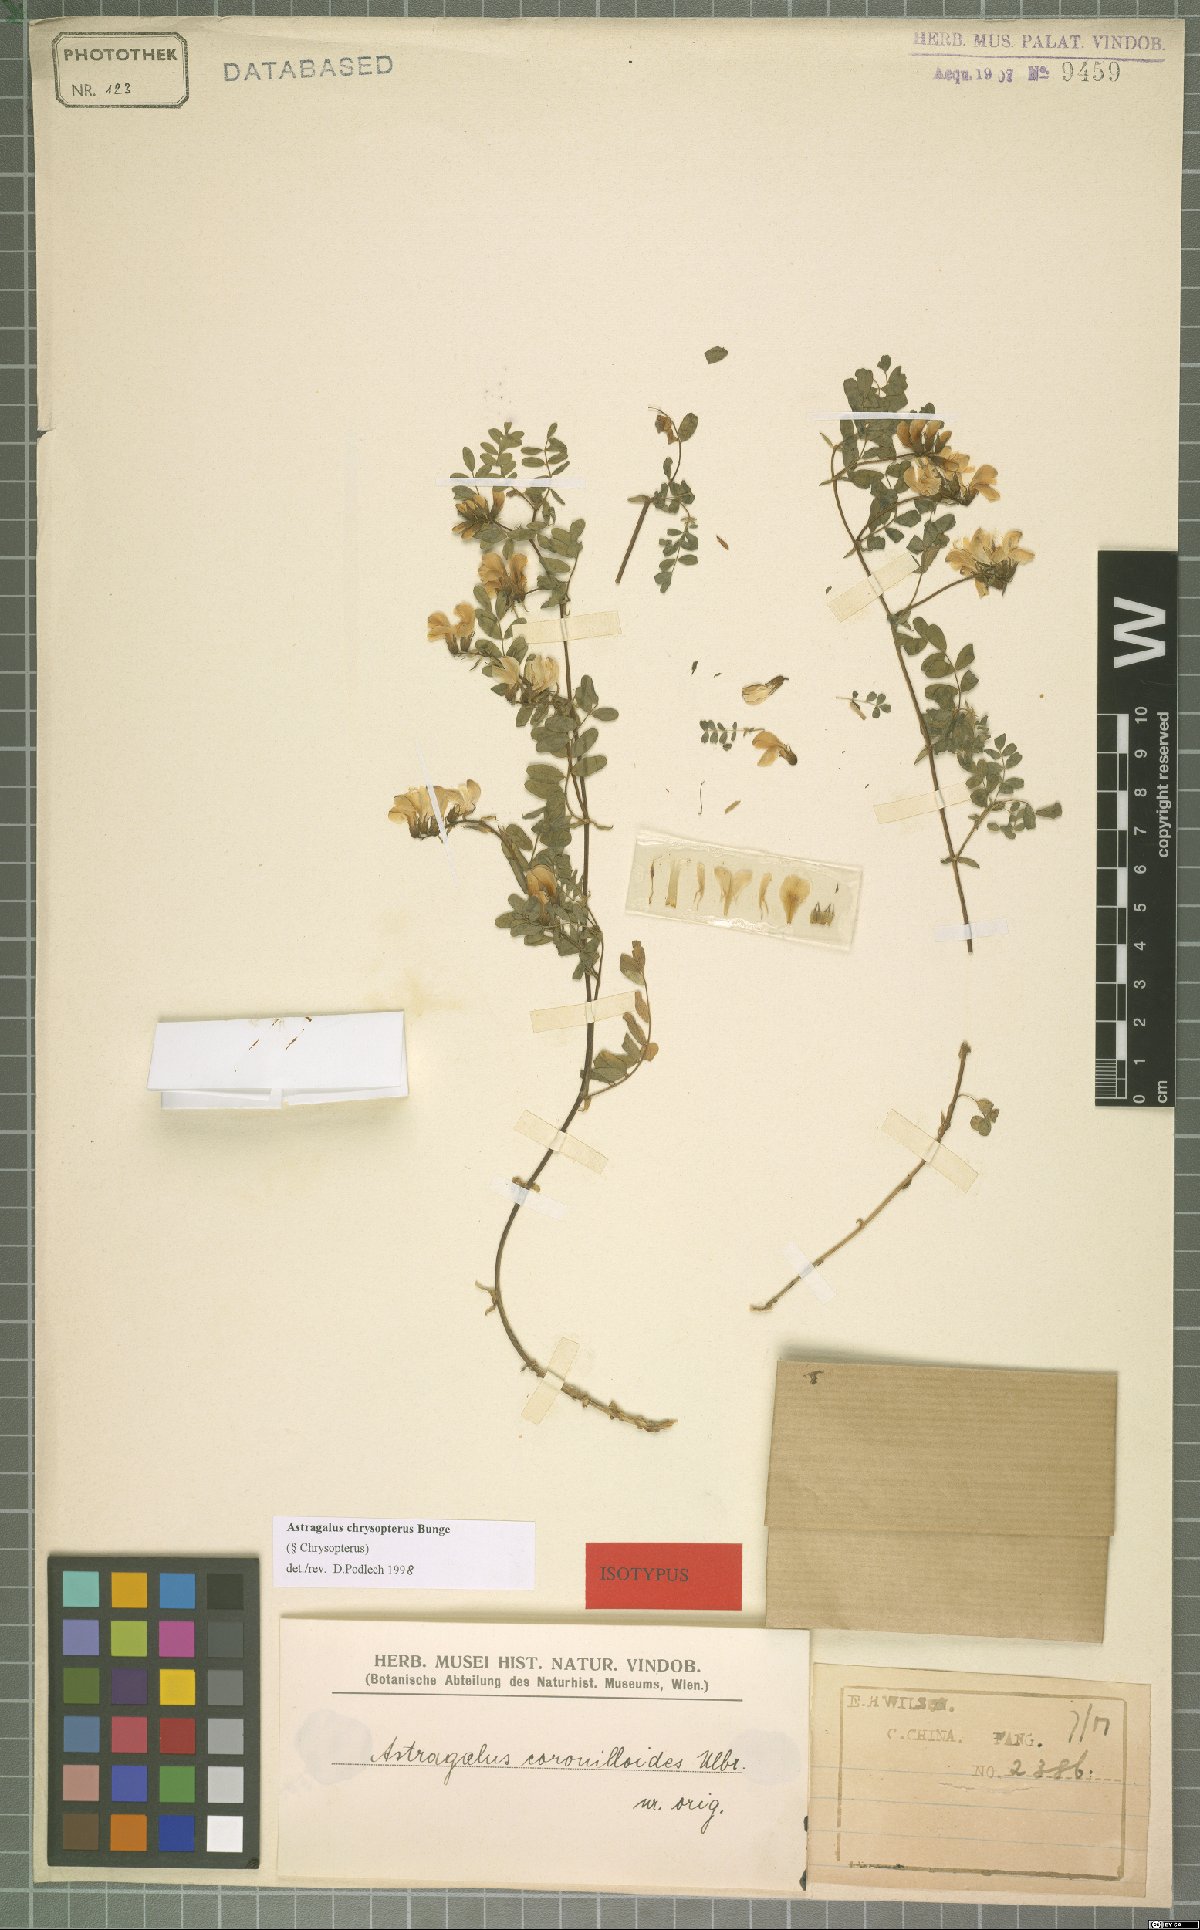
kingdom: Plantae
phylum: Tracheophyta
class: Magnoliopsida
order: Fabales
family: Fabaceae
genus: Astragalus
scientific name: Astragalus chrysopterus
